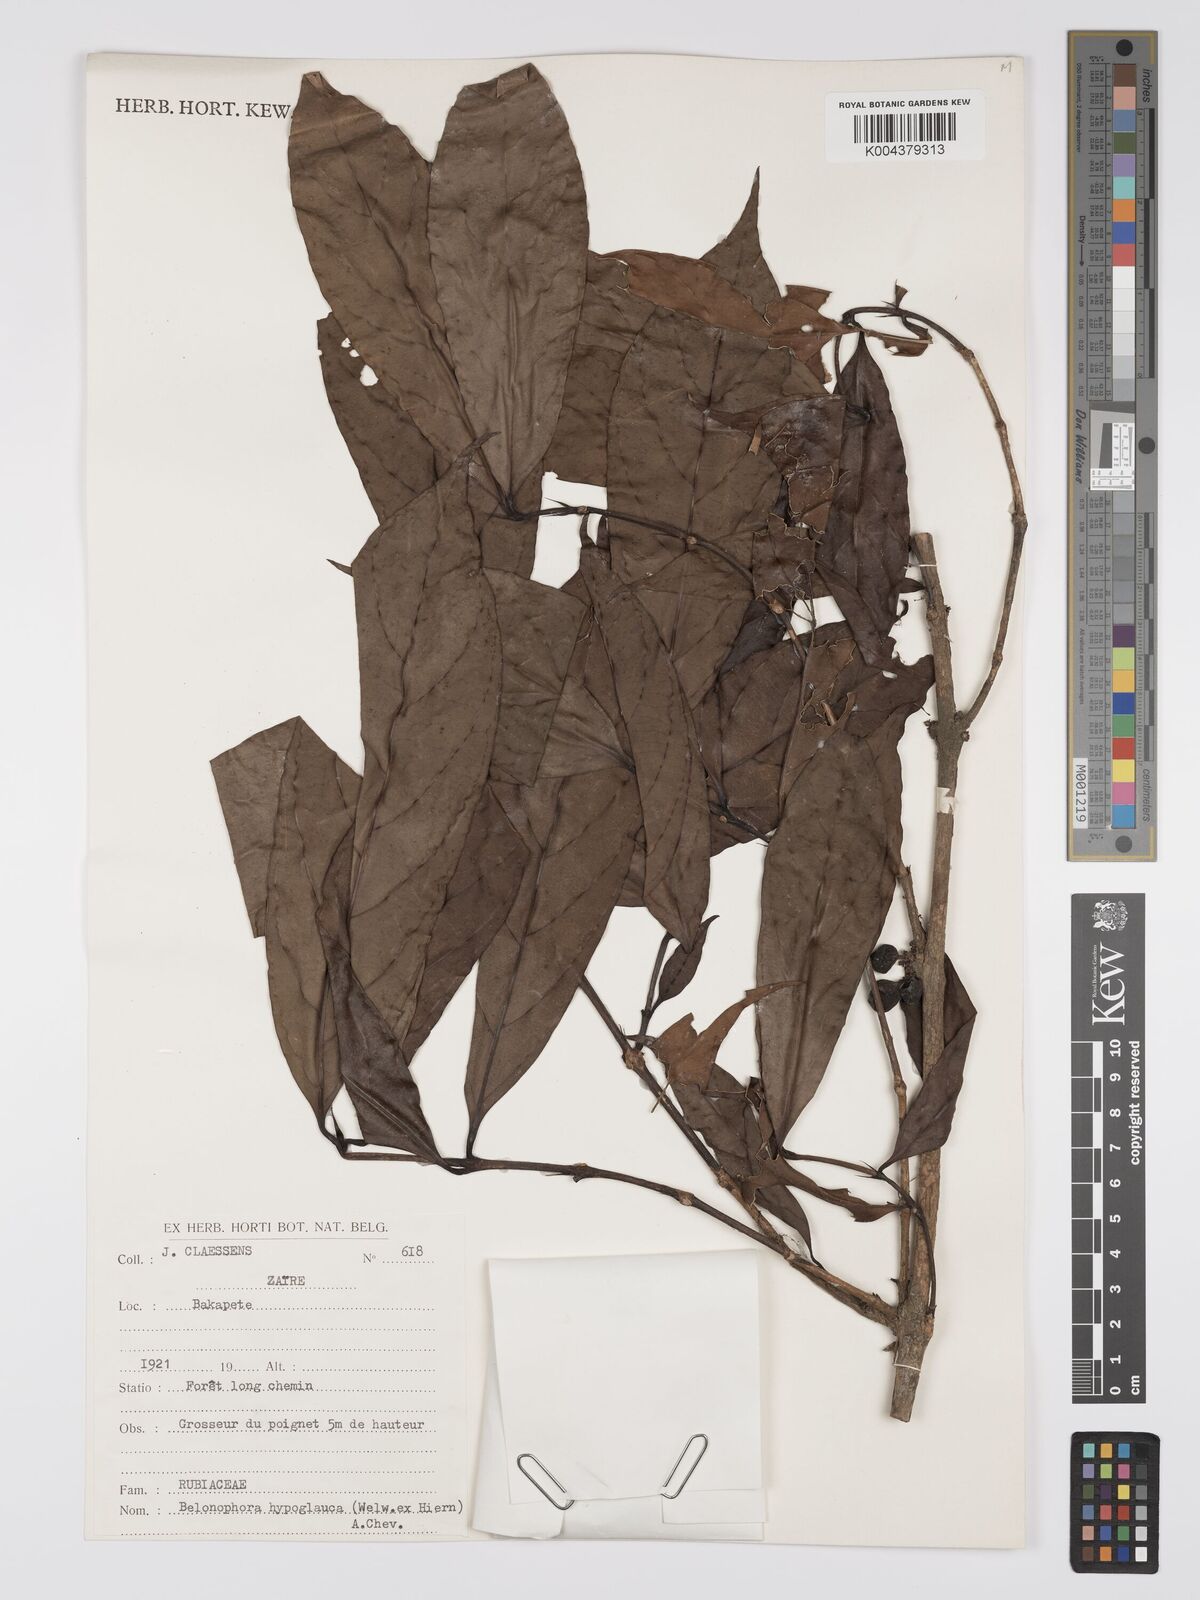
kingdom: Plantae
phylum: Tracheophyta
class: Magnoliopsida
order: Gentianales
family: Rubiaceae
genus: Belonophora
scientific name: Belonophora coffeoides
